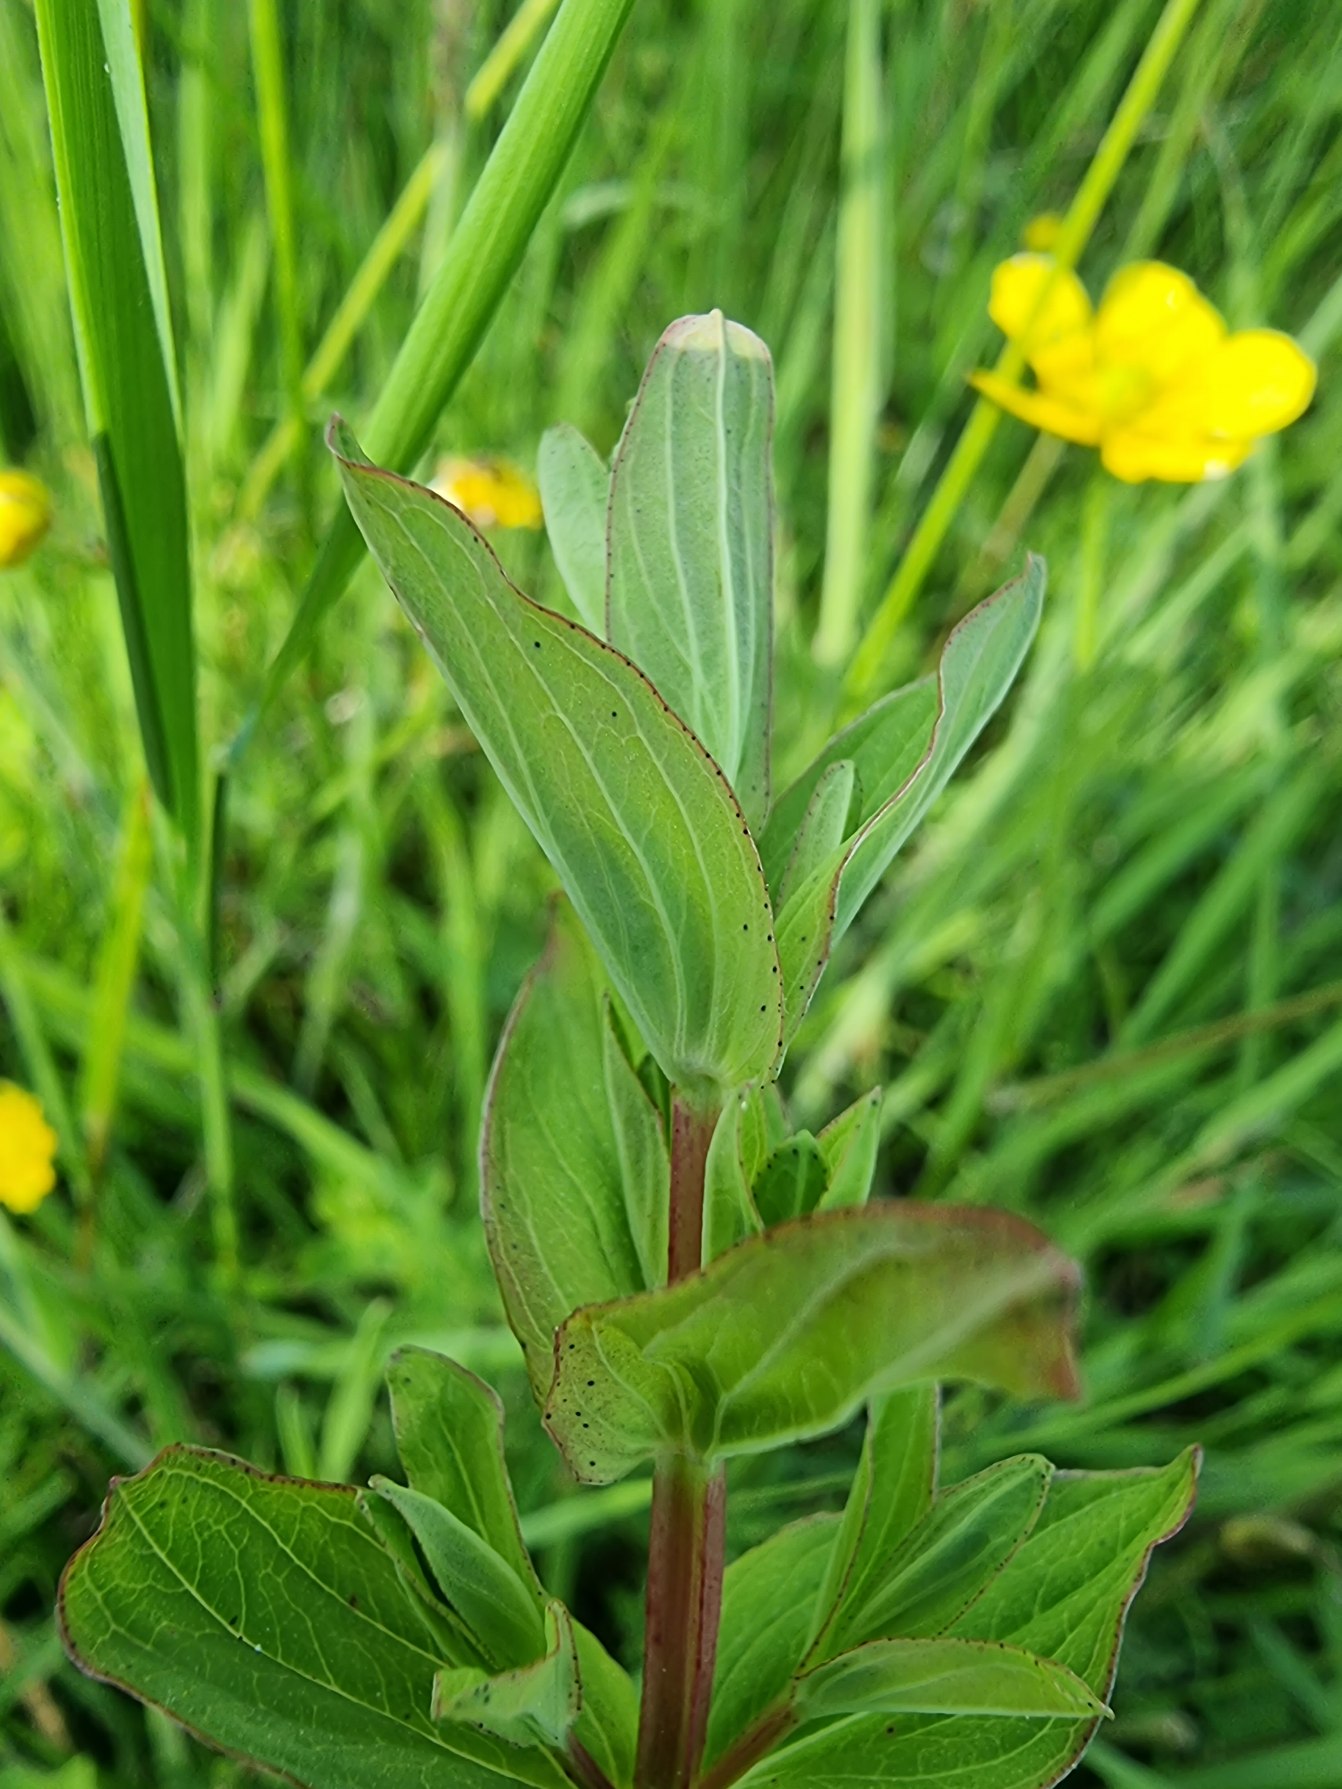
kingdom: Plantae
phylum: Tracheophyta
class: Magnoliopsida
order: Malpighiales
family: Hypericaceae
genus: Hypericum
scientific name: Hypericum tetrapterum
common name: Vinget perikon
